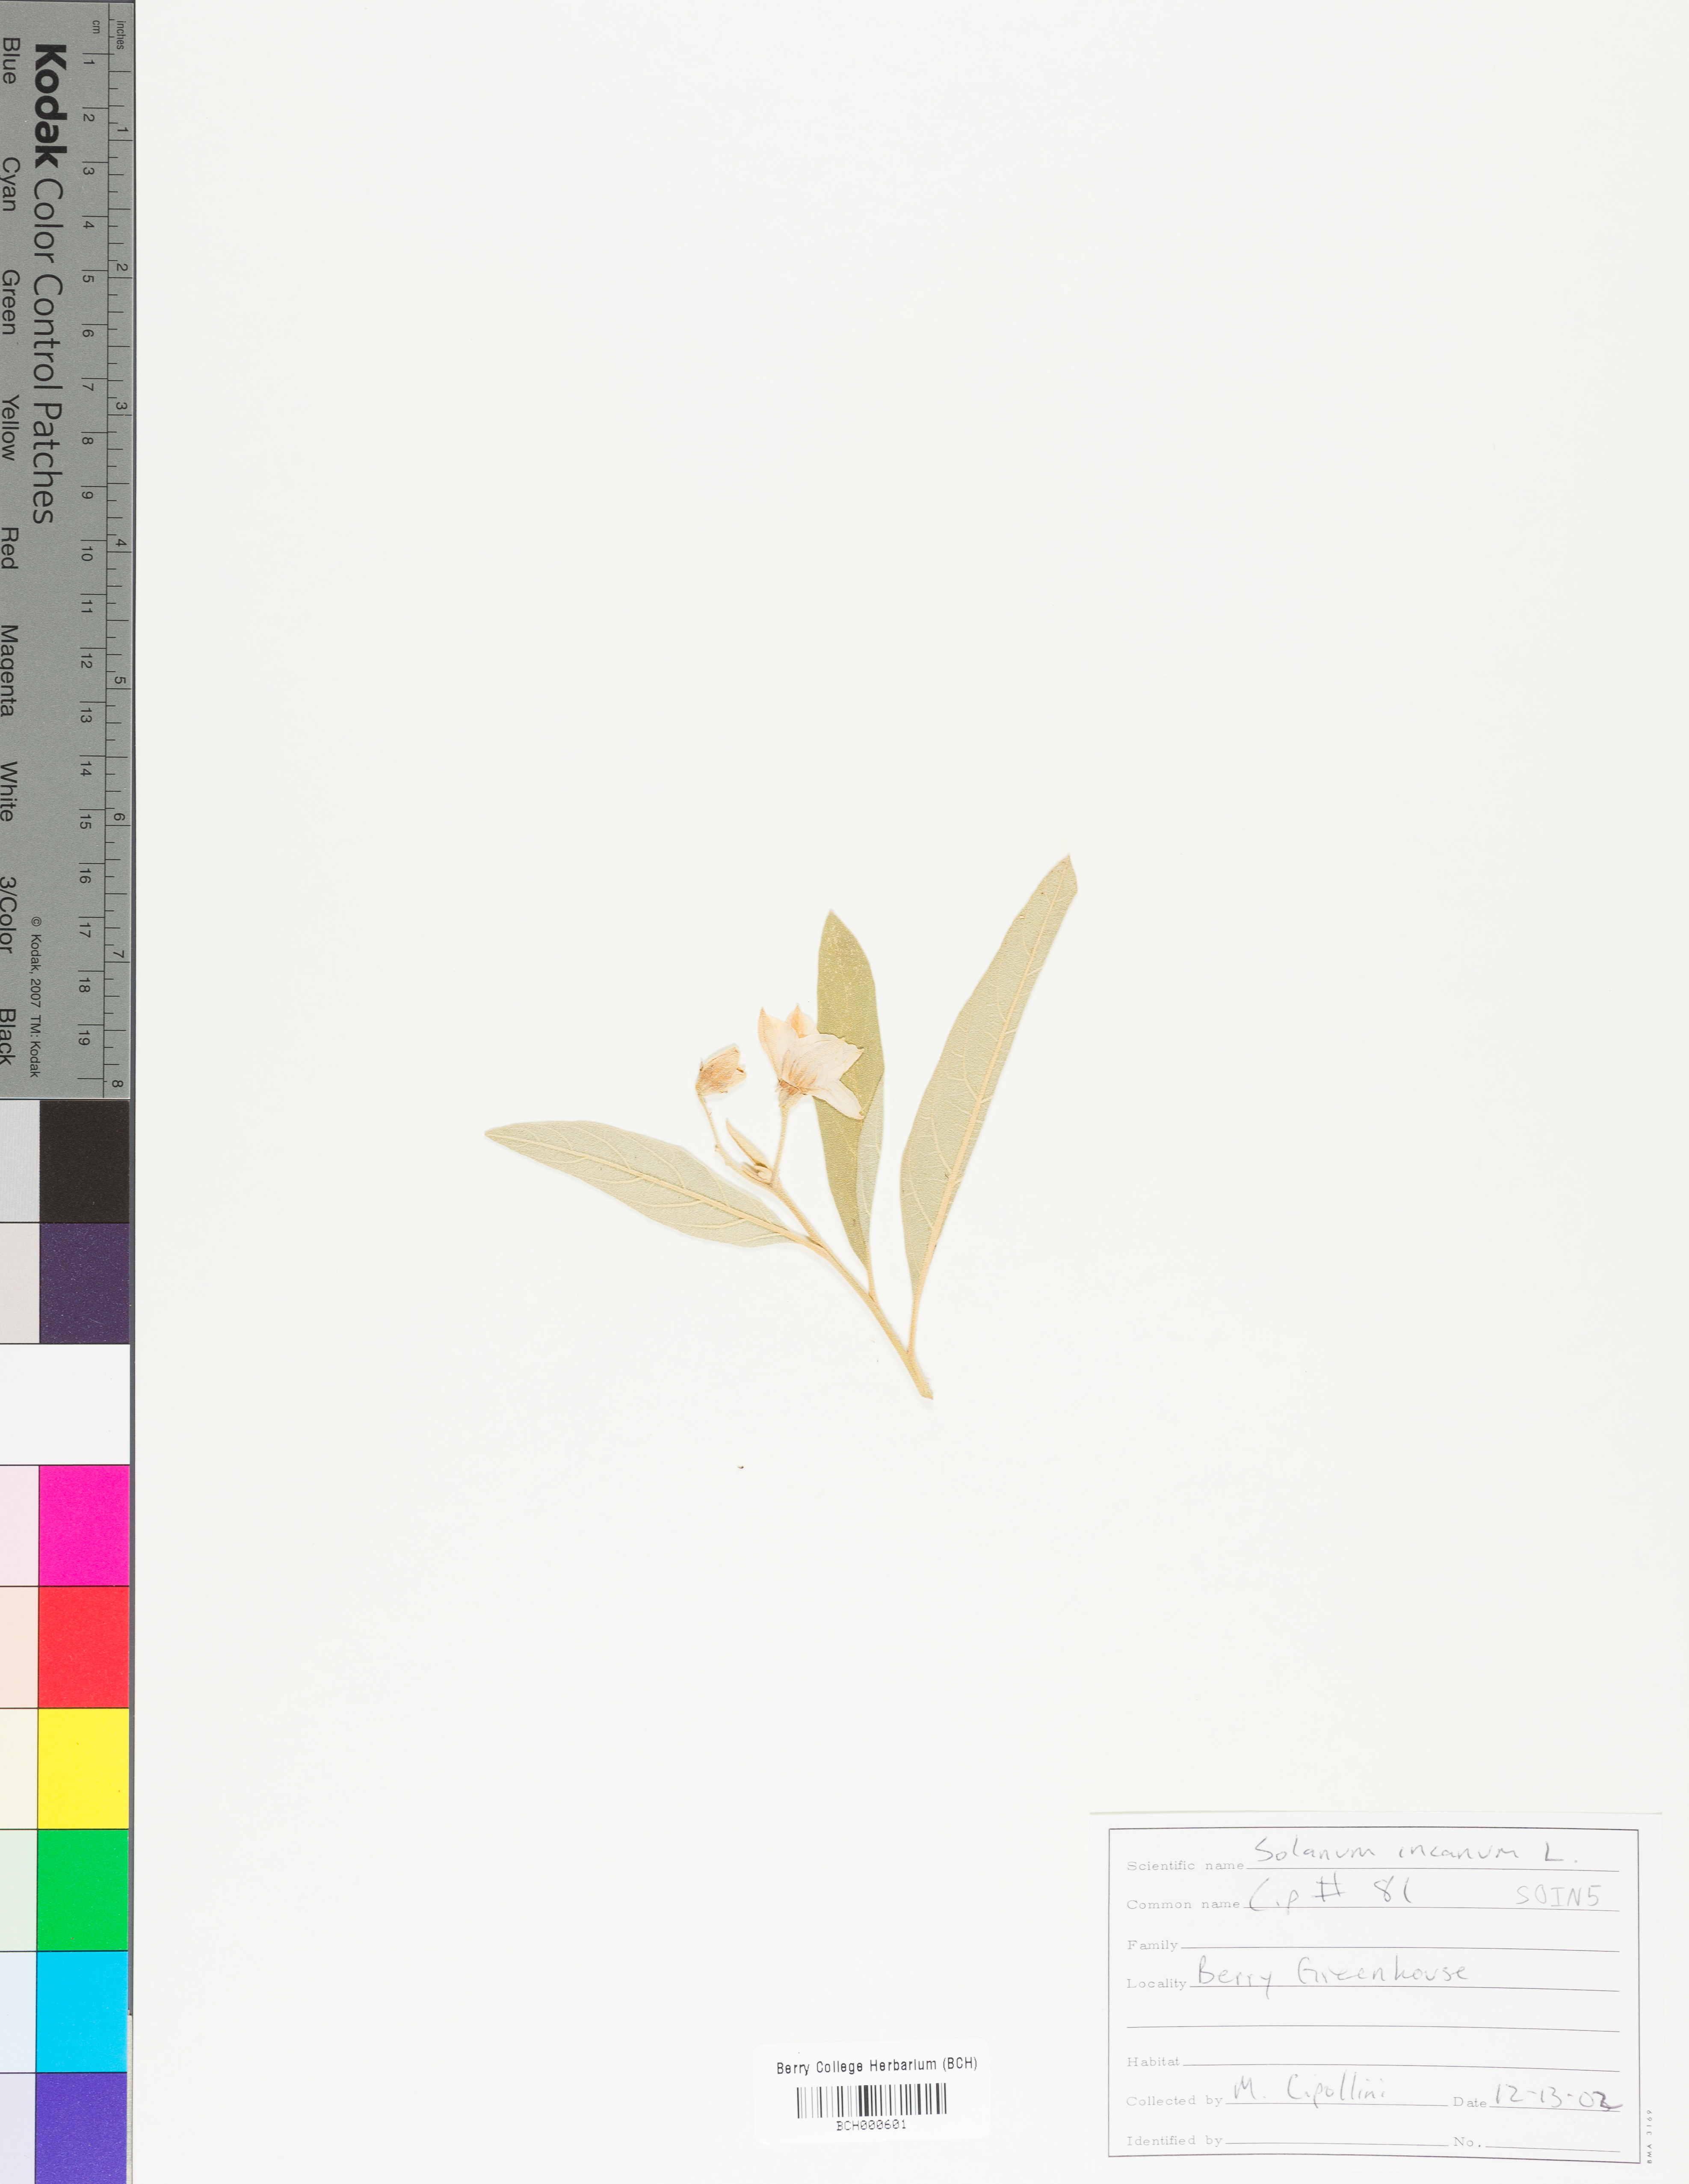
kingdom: Plantae
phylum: Tracheophyta
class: Magnoliopsida
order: Solanales
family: Solanaceae
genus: Solanum
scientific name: Solanum incanum
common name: Bitter apple
